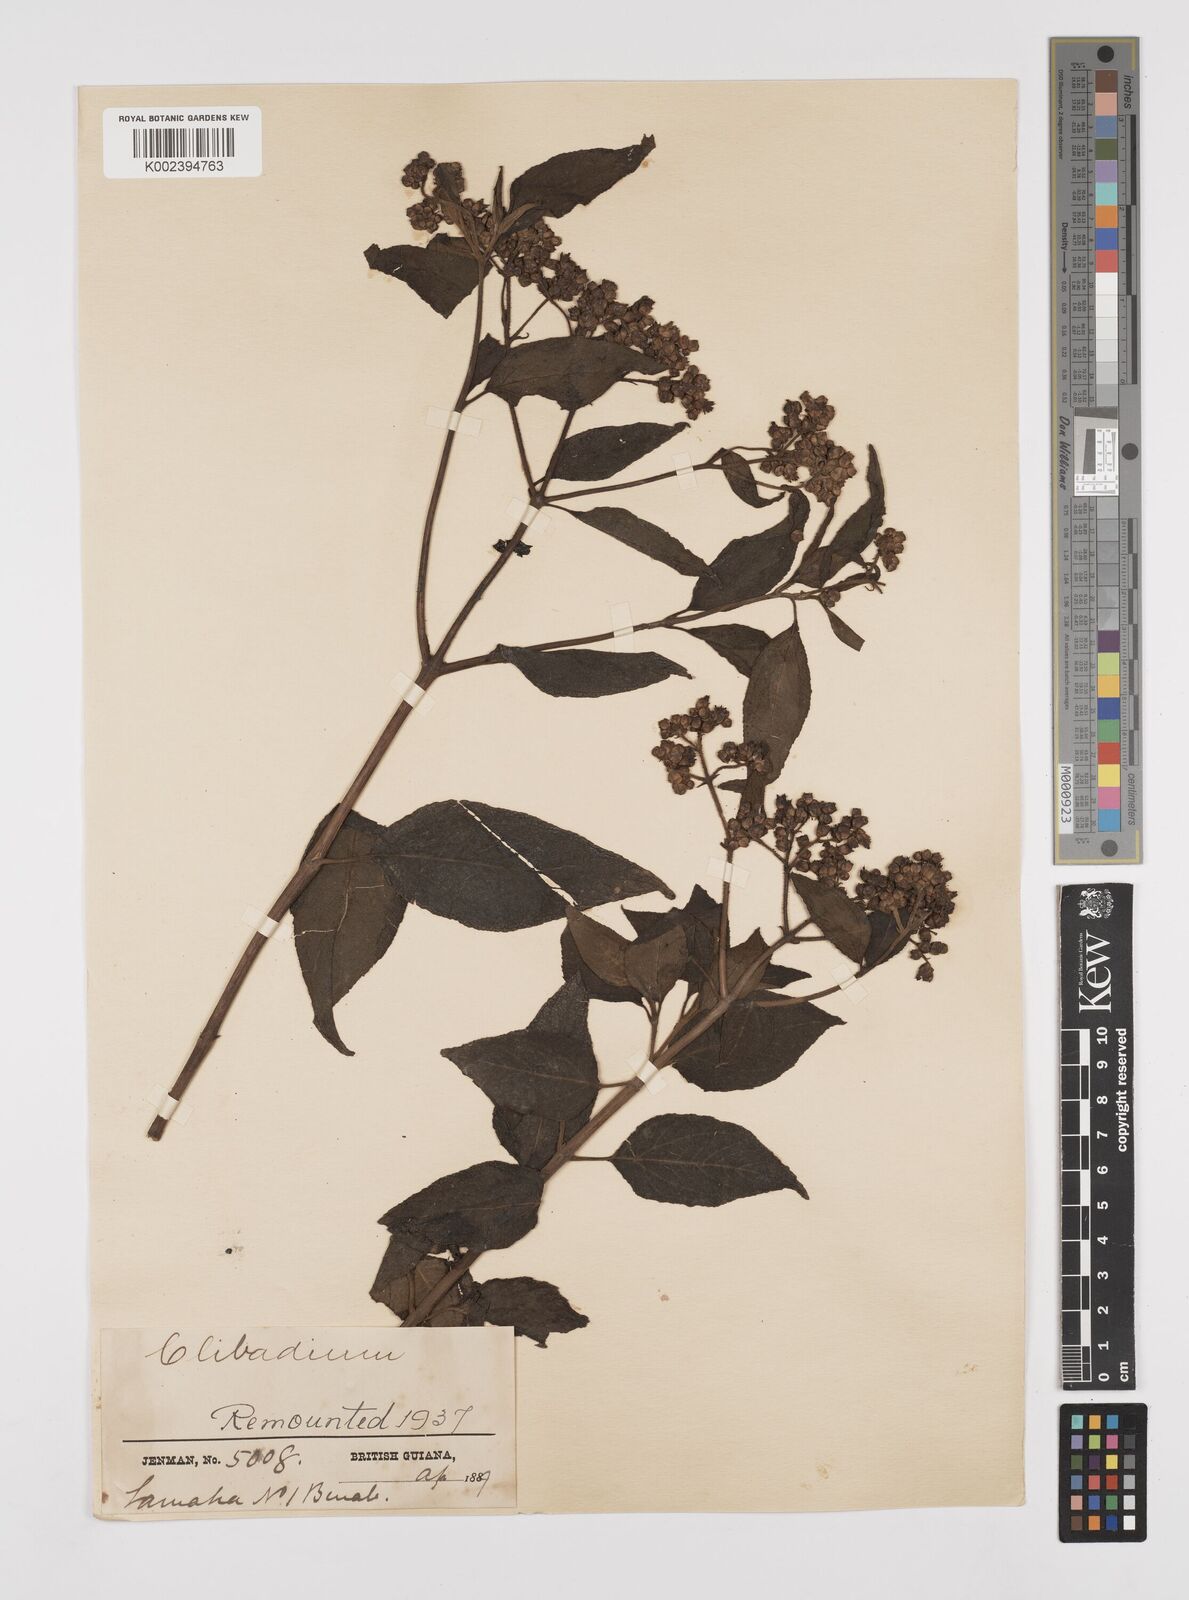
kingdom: Plantae
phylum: Tracheophyta
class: Magnoliopsida
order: Asterales
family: Asteraceae
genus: Clibadium
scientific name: Clibadium surinamense
